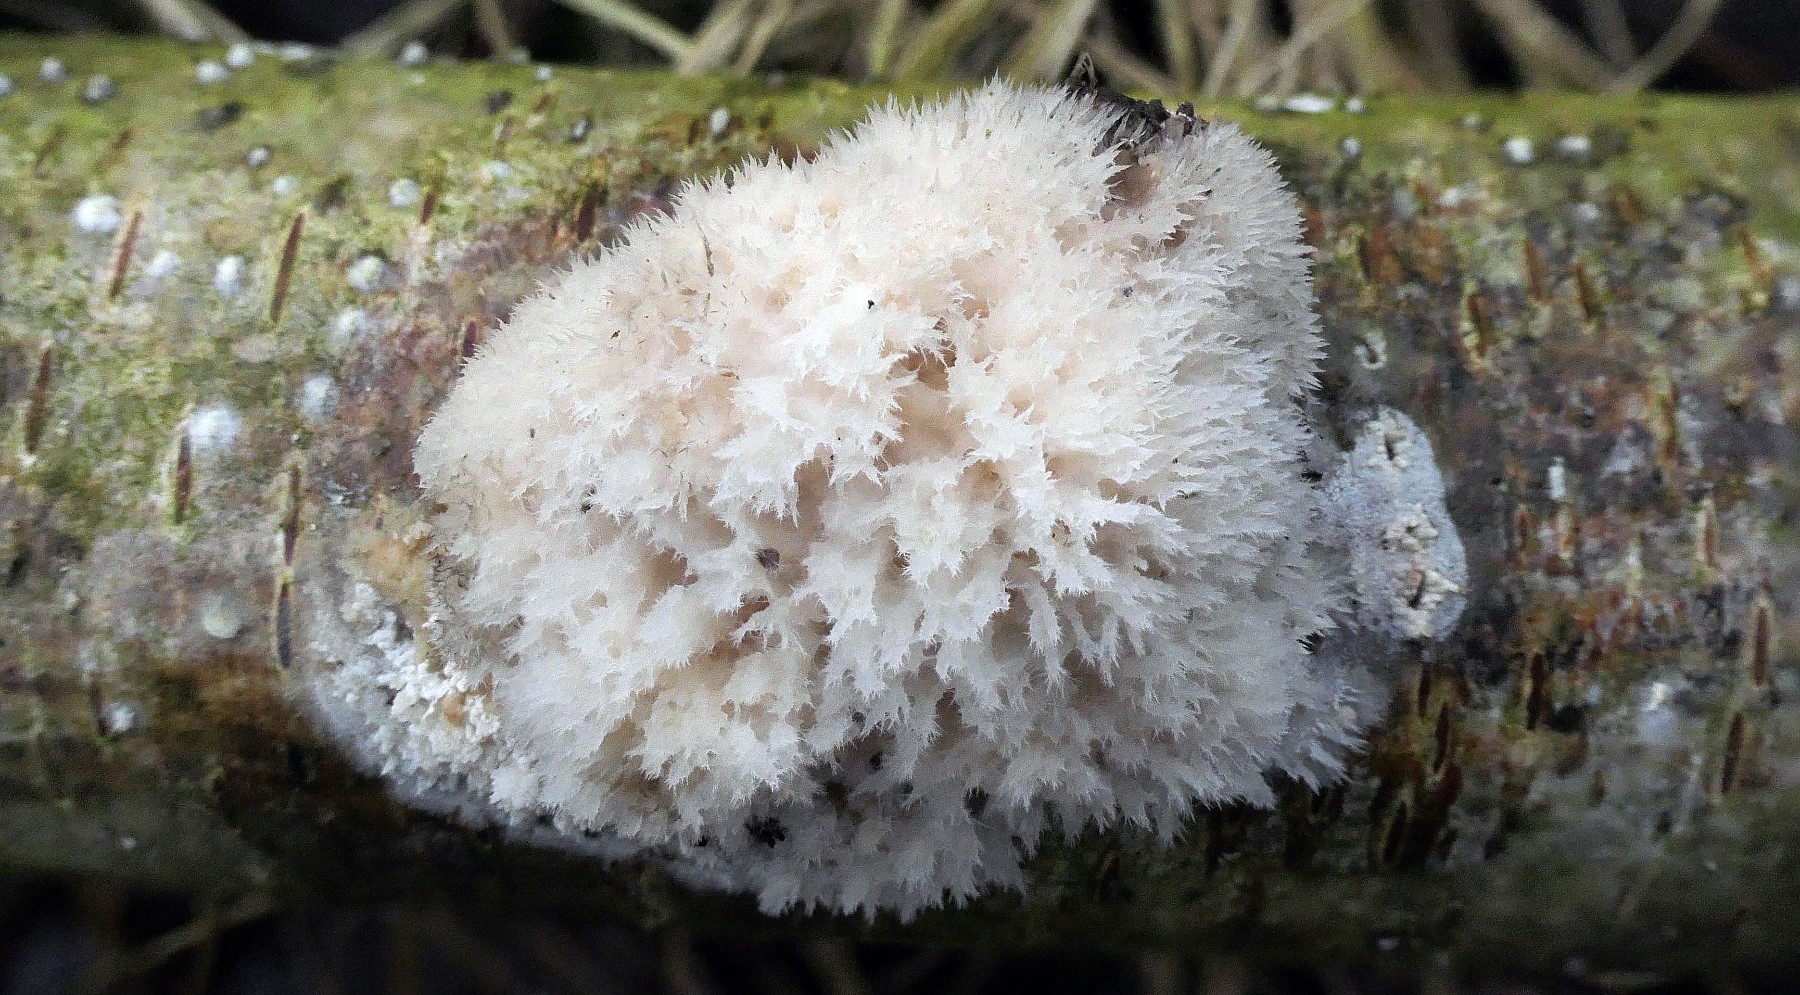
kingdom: Fungi
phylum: Basidiomycota
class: Agaricomycetes
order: Polyporales
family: Dacryobolaceae
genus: Postia
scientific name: Postia ptychogaster
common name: støvende kødporesvamp
